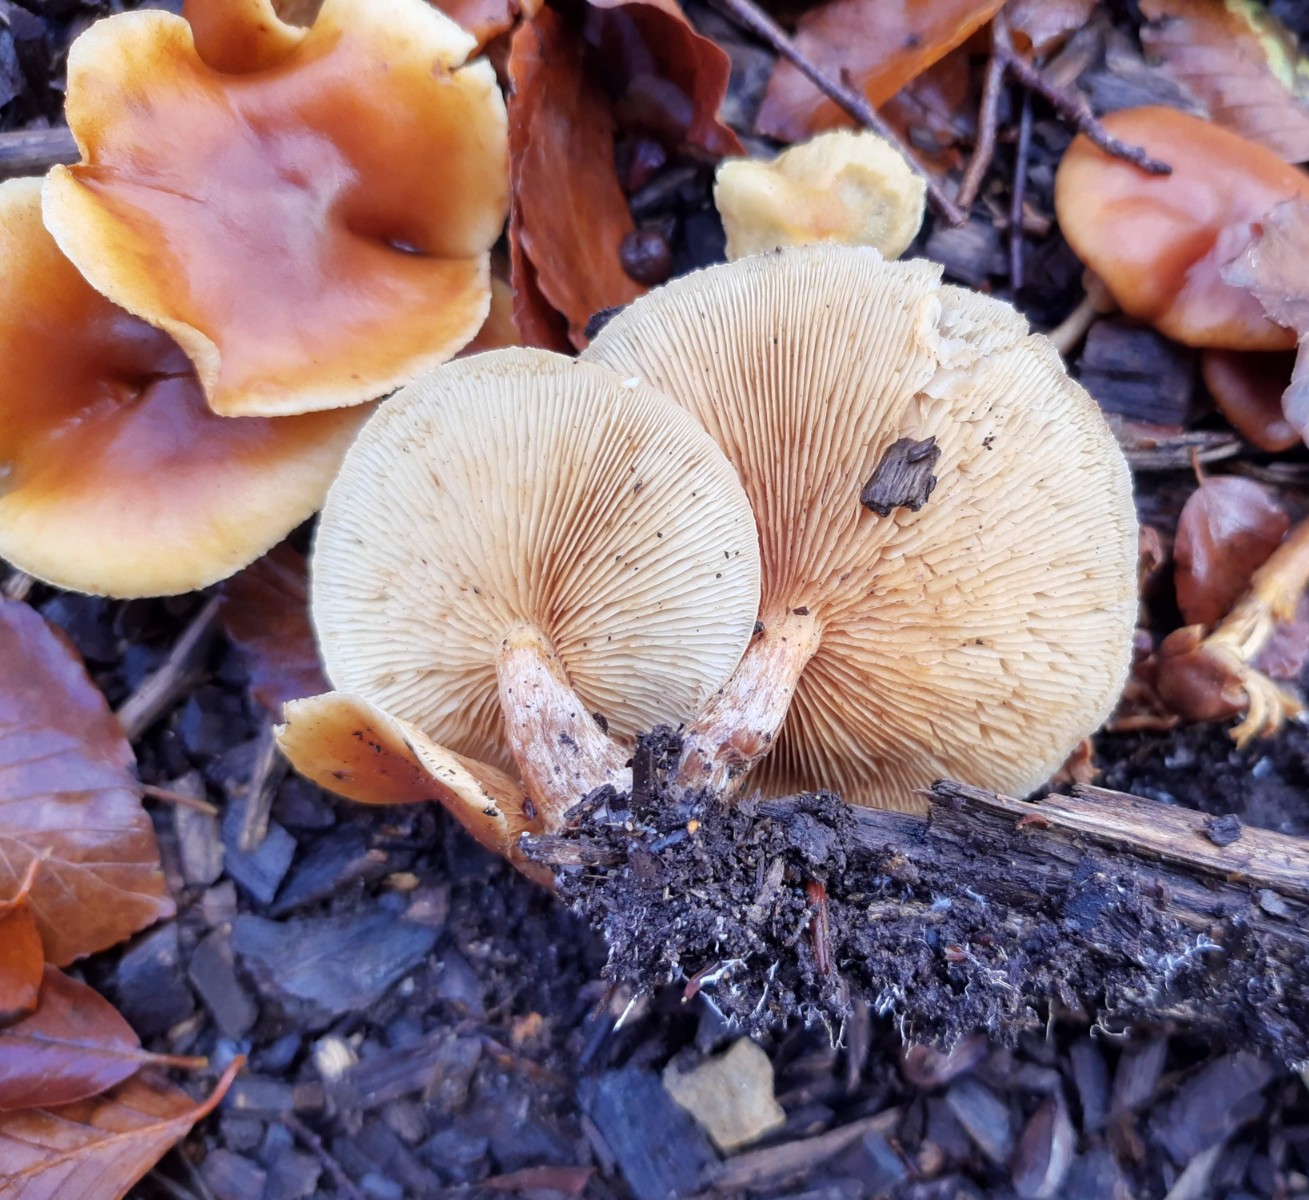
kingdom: Fungi
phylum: Basidiomycota
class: Agaricomycetes
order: Agaricales
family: Hymenogastraceae
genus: Gymnopilus
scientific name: Gymnopilus penetrans
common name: plettet flammehat
